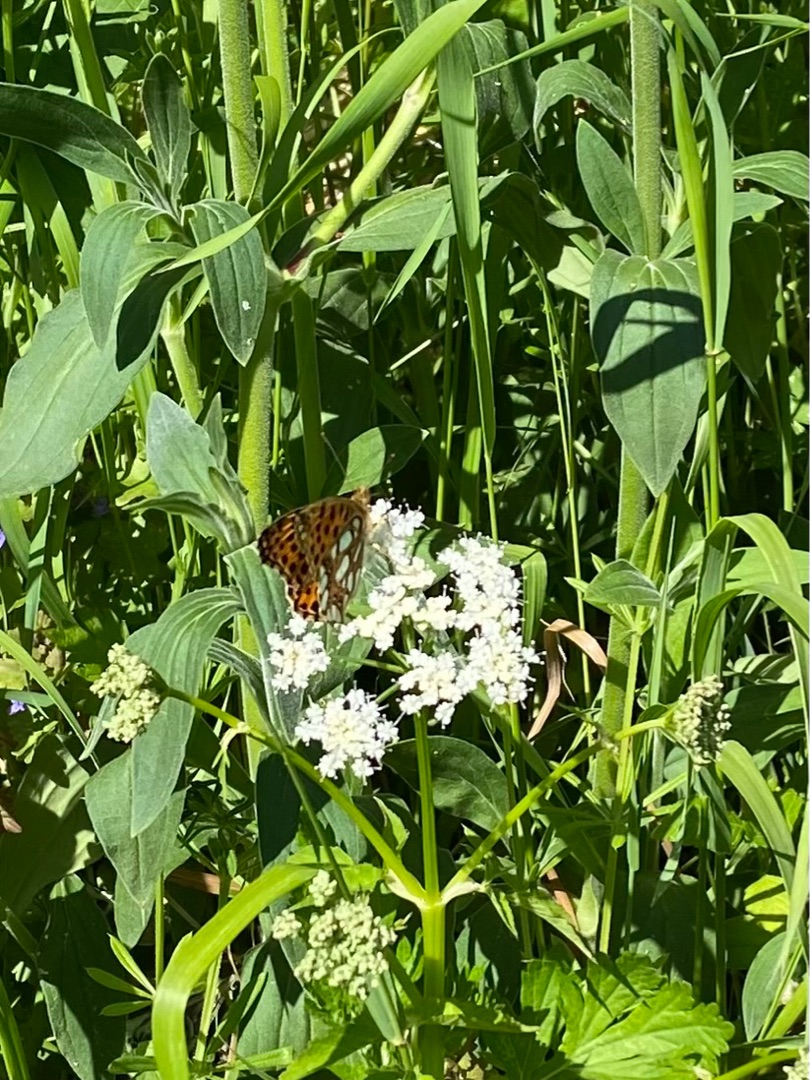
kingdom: Animalia
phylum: Arthropoda
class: Insecta
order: Lepidoptera
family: Nymphalidae
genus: Issoria
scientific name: Issoria lathonia
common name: Storplettet perlemorsommerfugl
